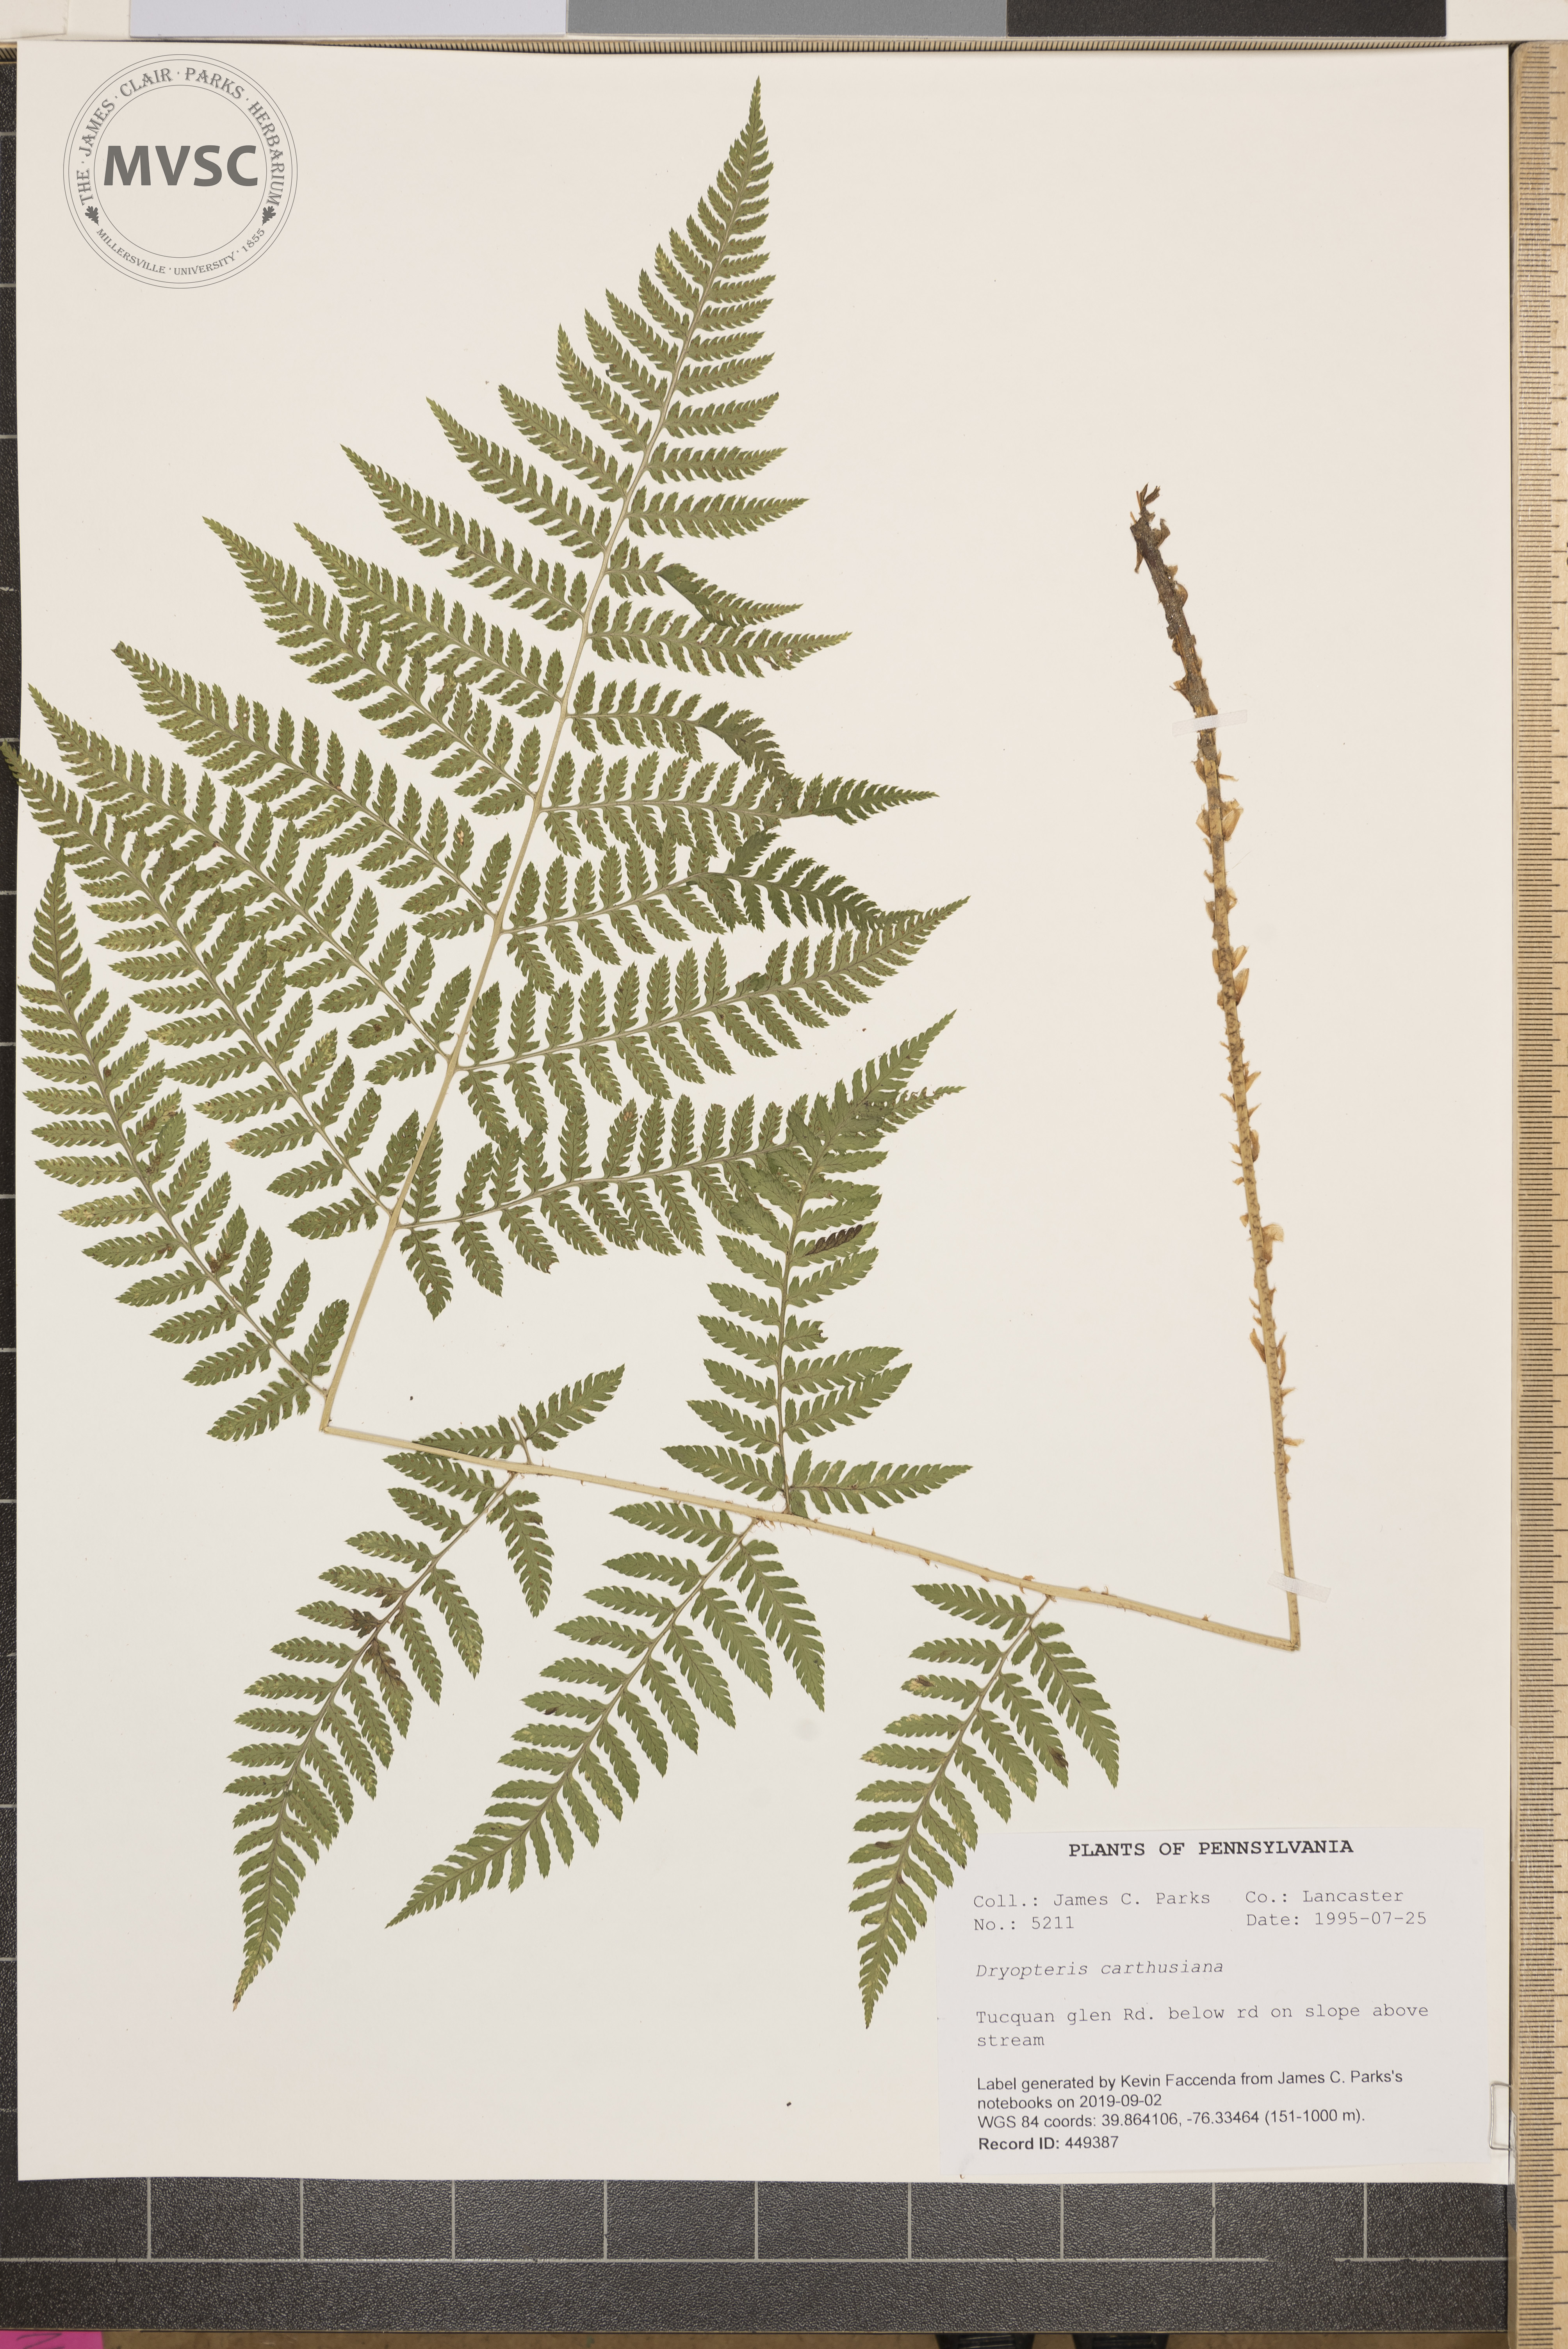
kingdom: Plantae
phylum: Tracheophyta
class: Polypodiopsida
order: Polypodiales
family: Dryopteridaceae
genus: Dryopteris
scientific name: Dryopteris carthusiana
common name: Narrow buckler-fern
